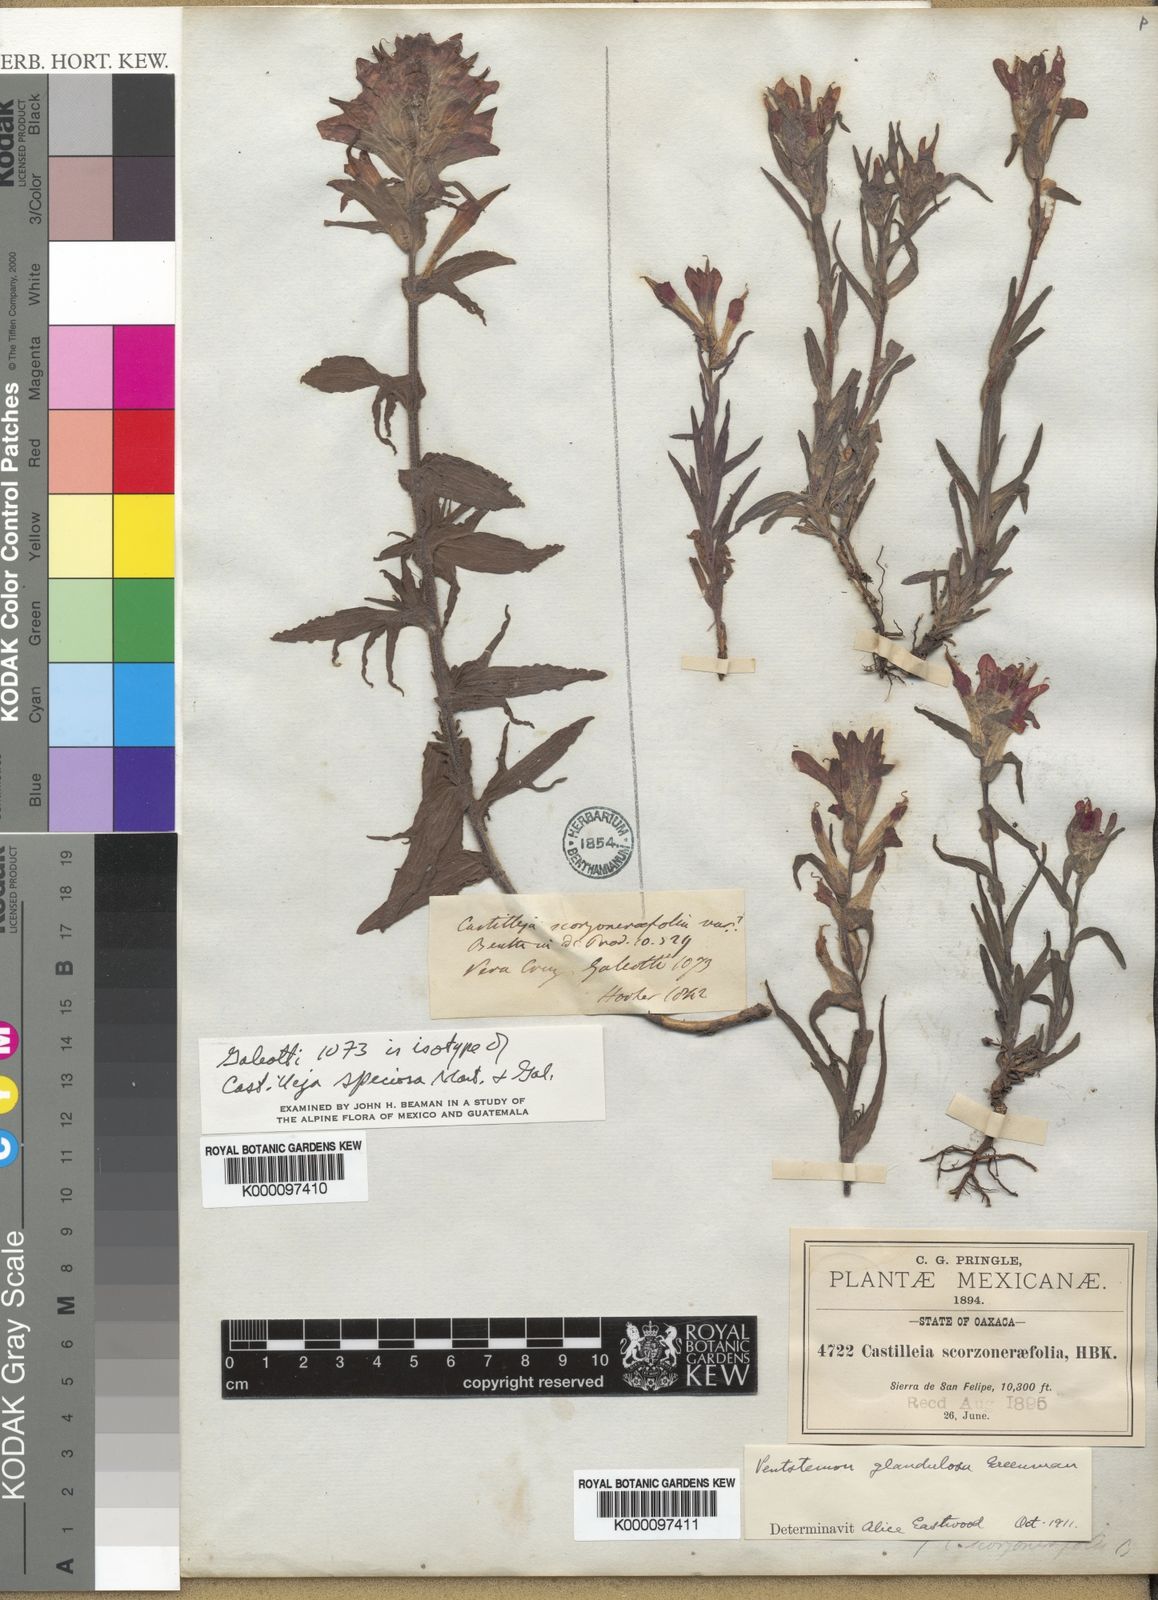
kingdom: Plantae
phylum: Tracheophyta
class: Magnoliopsida
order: Lamiales
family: Orobanchaceae
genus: Castilleja
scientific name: Castilleja subalpina
